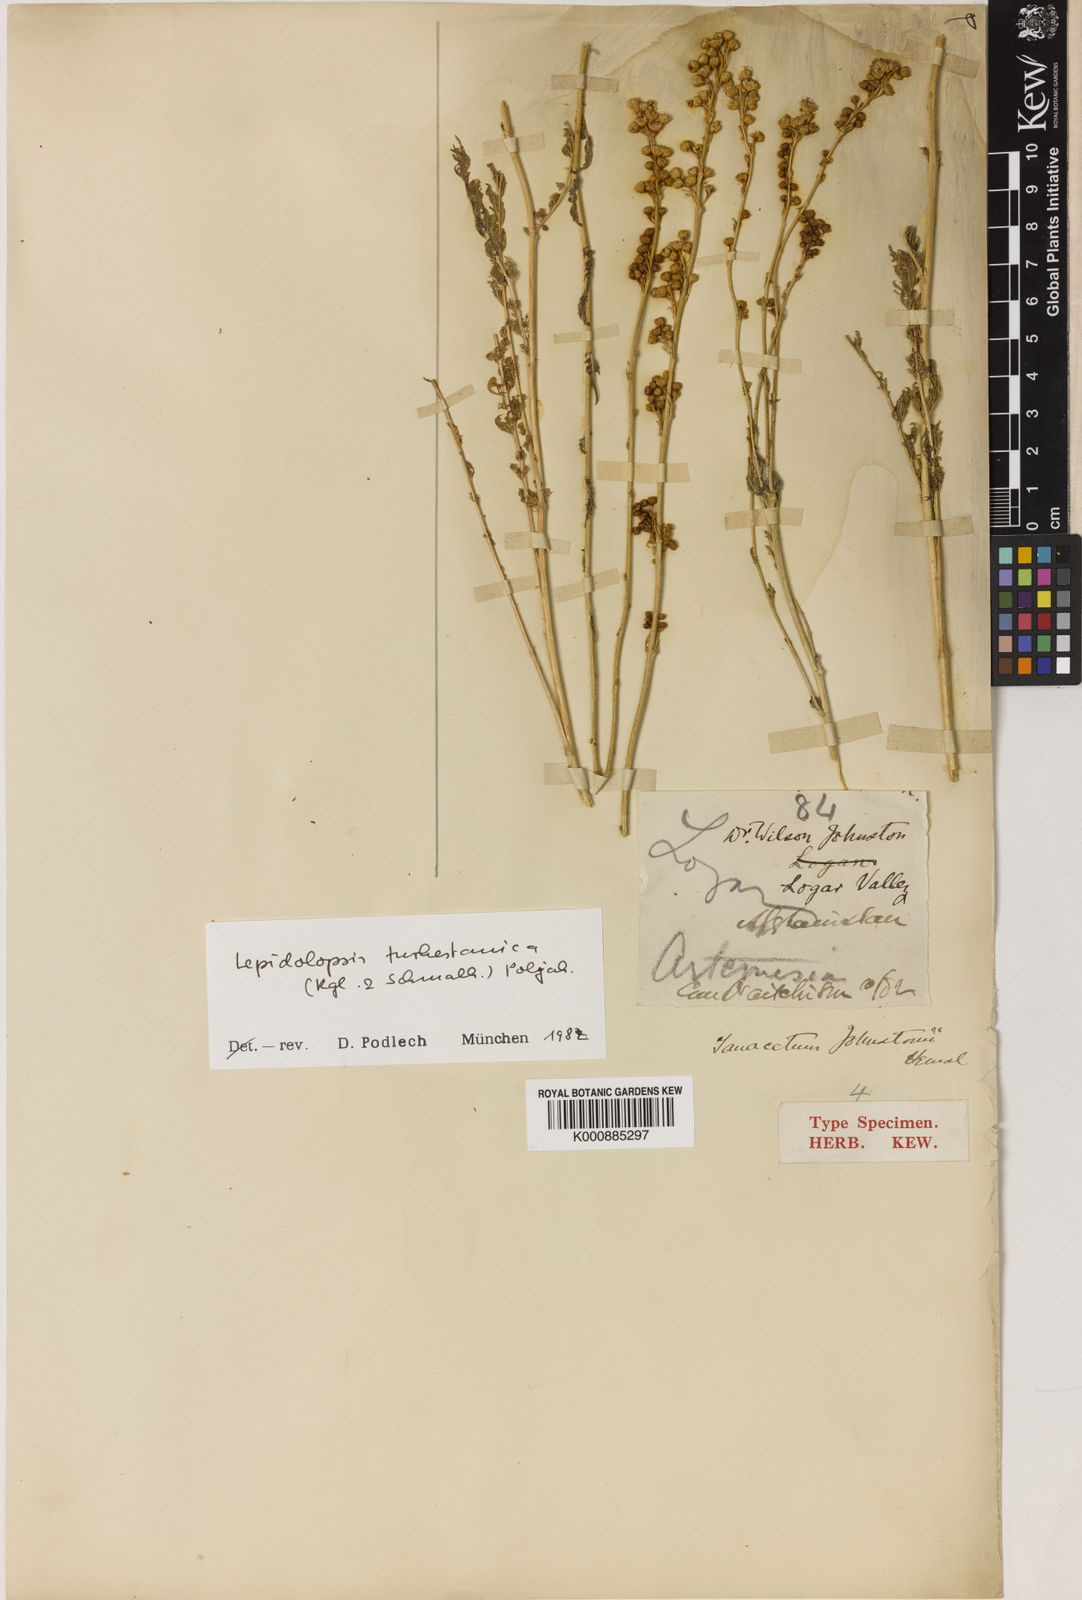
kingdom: Plantae
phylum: Tracheophyta
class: Magnoliopsida
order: Asterales
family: Asteraceae
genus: Lepidolopsis
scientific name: Lepidolopsis turkestanica
